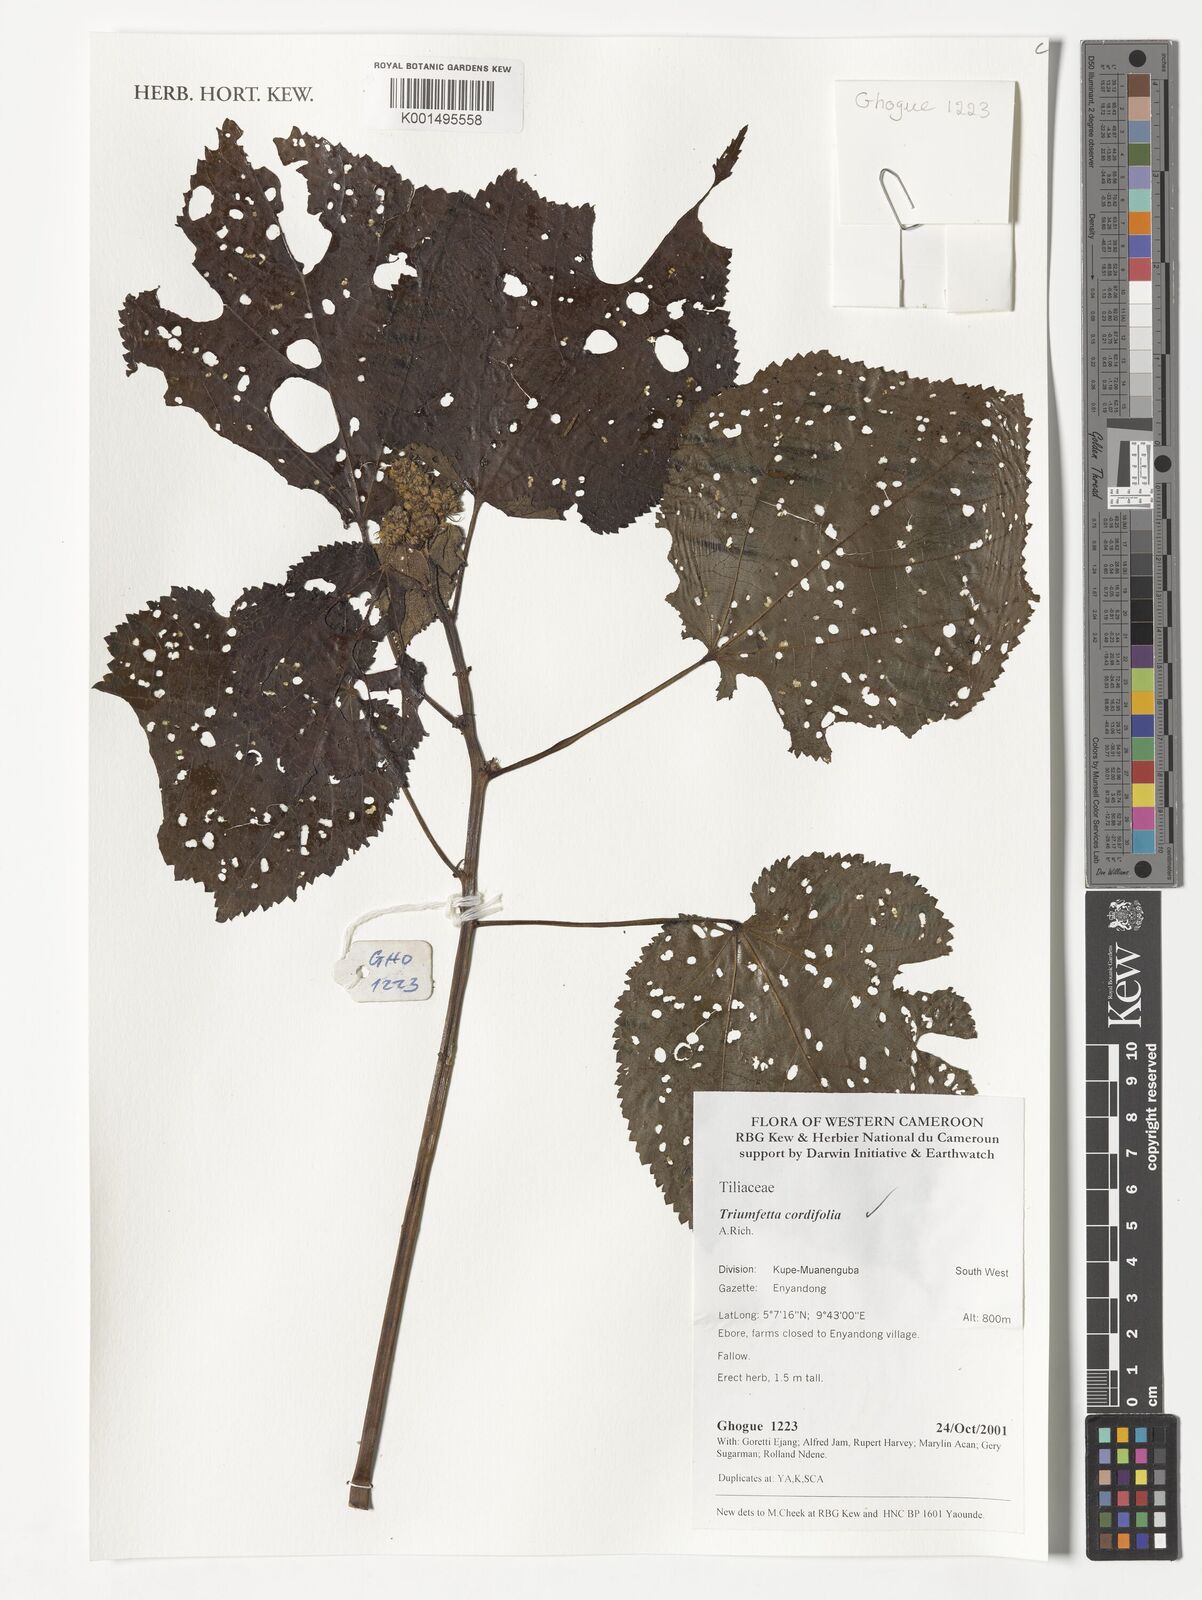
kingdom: Plantae
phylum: Tracheophyta
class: Magnoliopsida
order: Malvales
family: Malvaceae
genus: Triumfetta
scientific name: Triumfetta cordifolia
